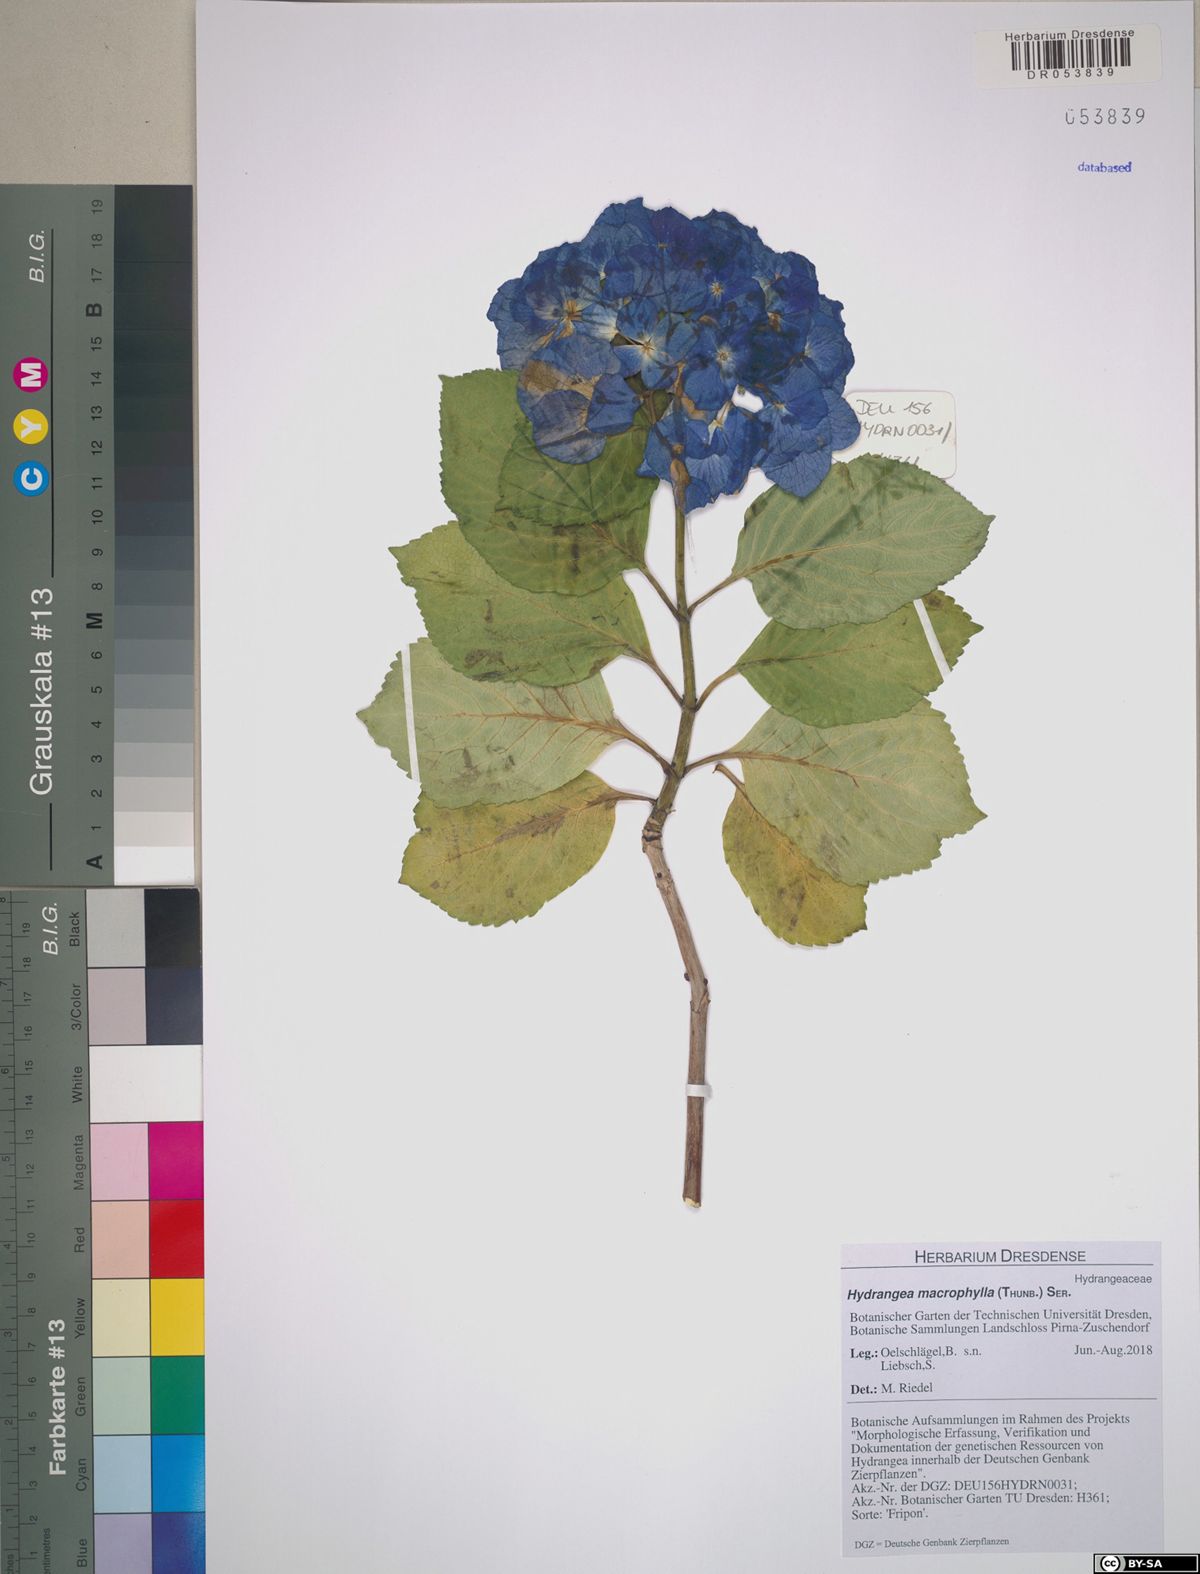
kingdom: Plantae
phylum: Tracheophyta
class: Magnoliopsida
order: Cornales
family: Hydrangeaceae
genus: Hydrangea
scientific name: Hydrangea macrophylla
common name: Hydrangea
